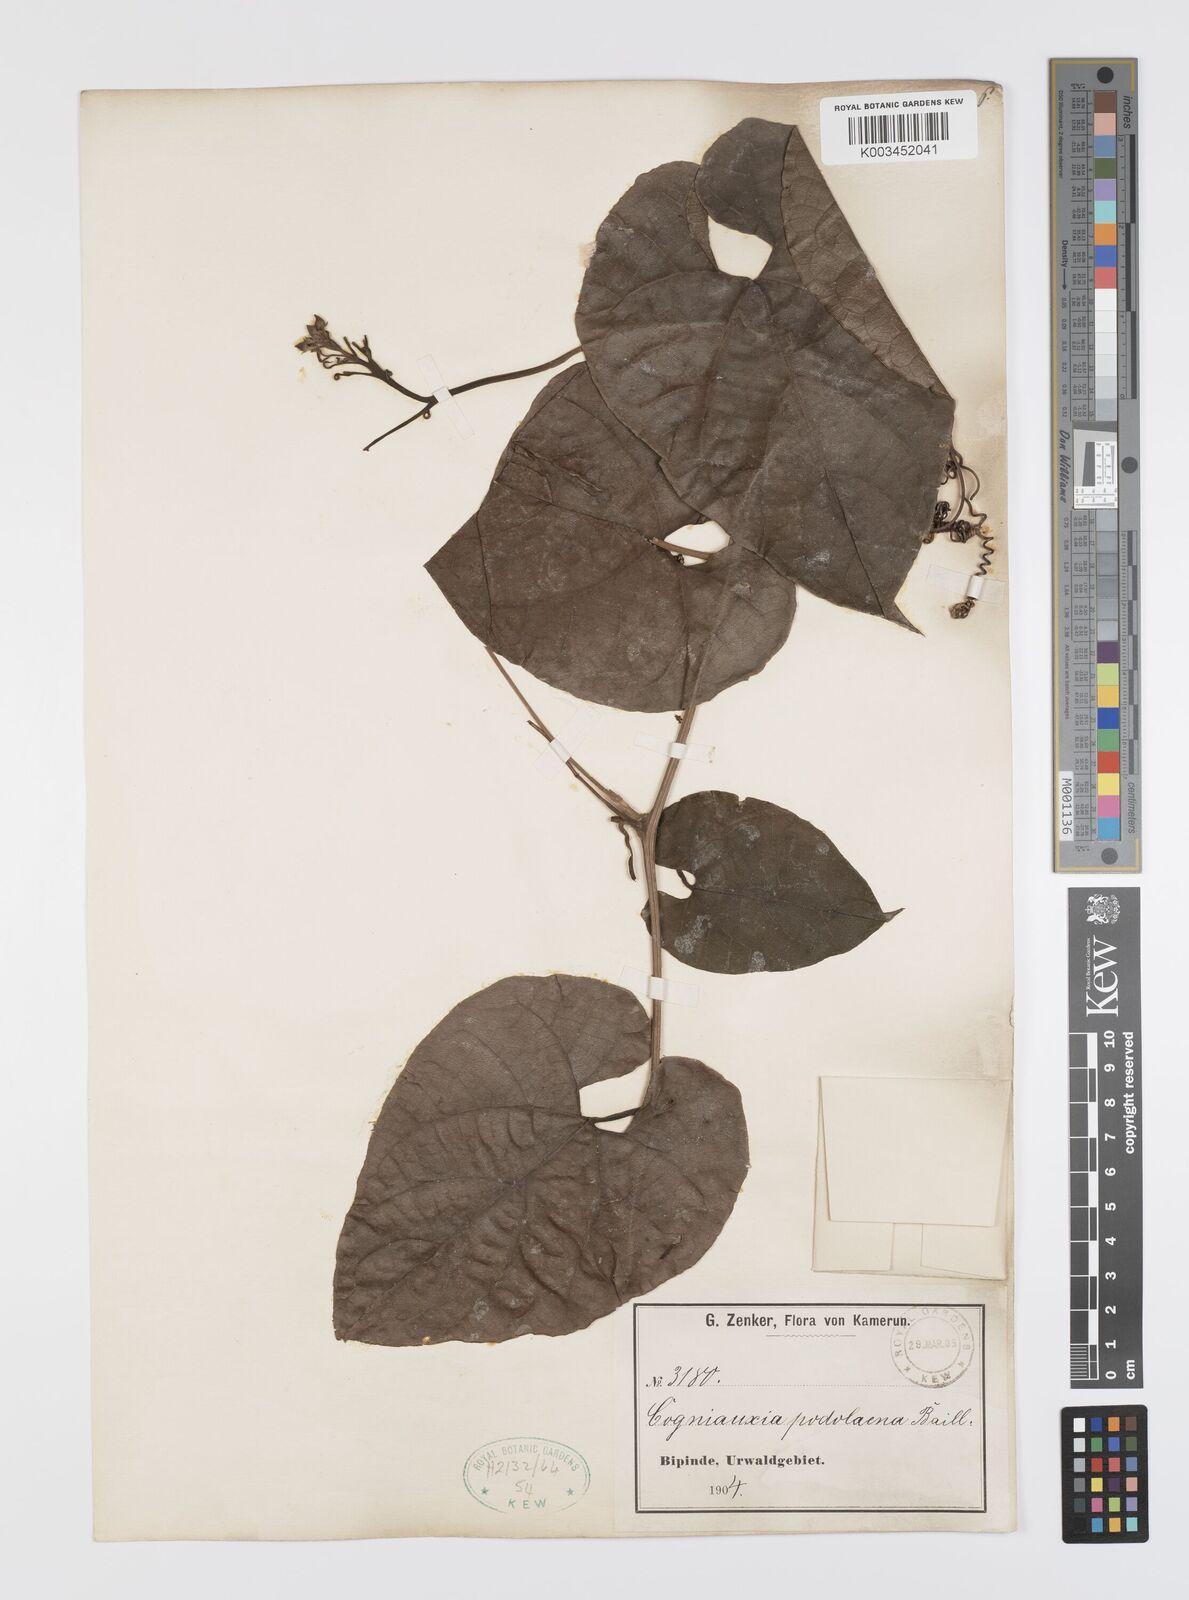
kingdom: Plantae
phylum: Tracheophyta
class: Magnoliopsida
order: Cucurbitales
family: Cucurbitaceae
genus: Cogniauxia
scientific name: Cogniauxia podolaena
